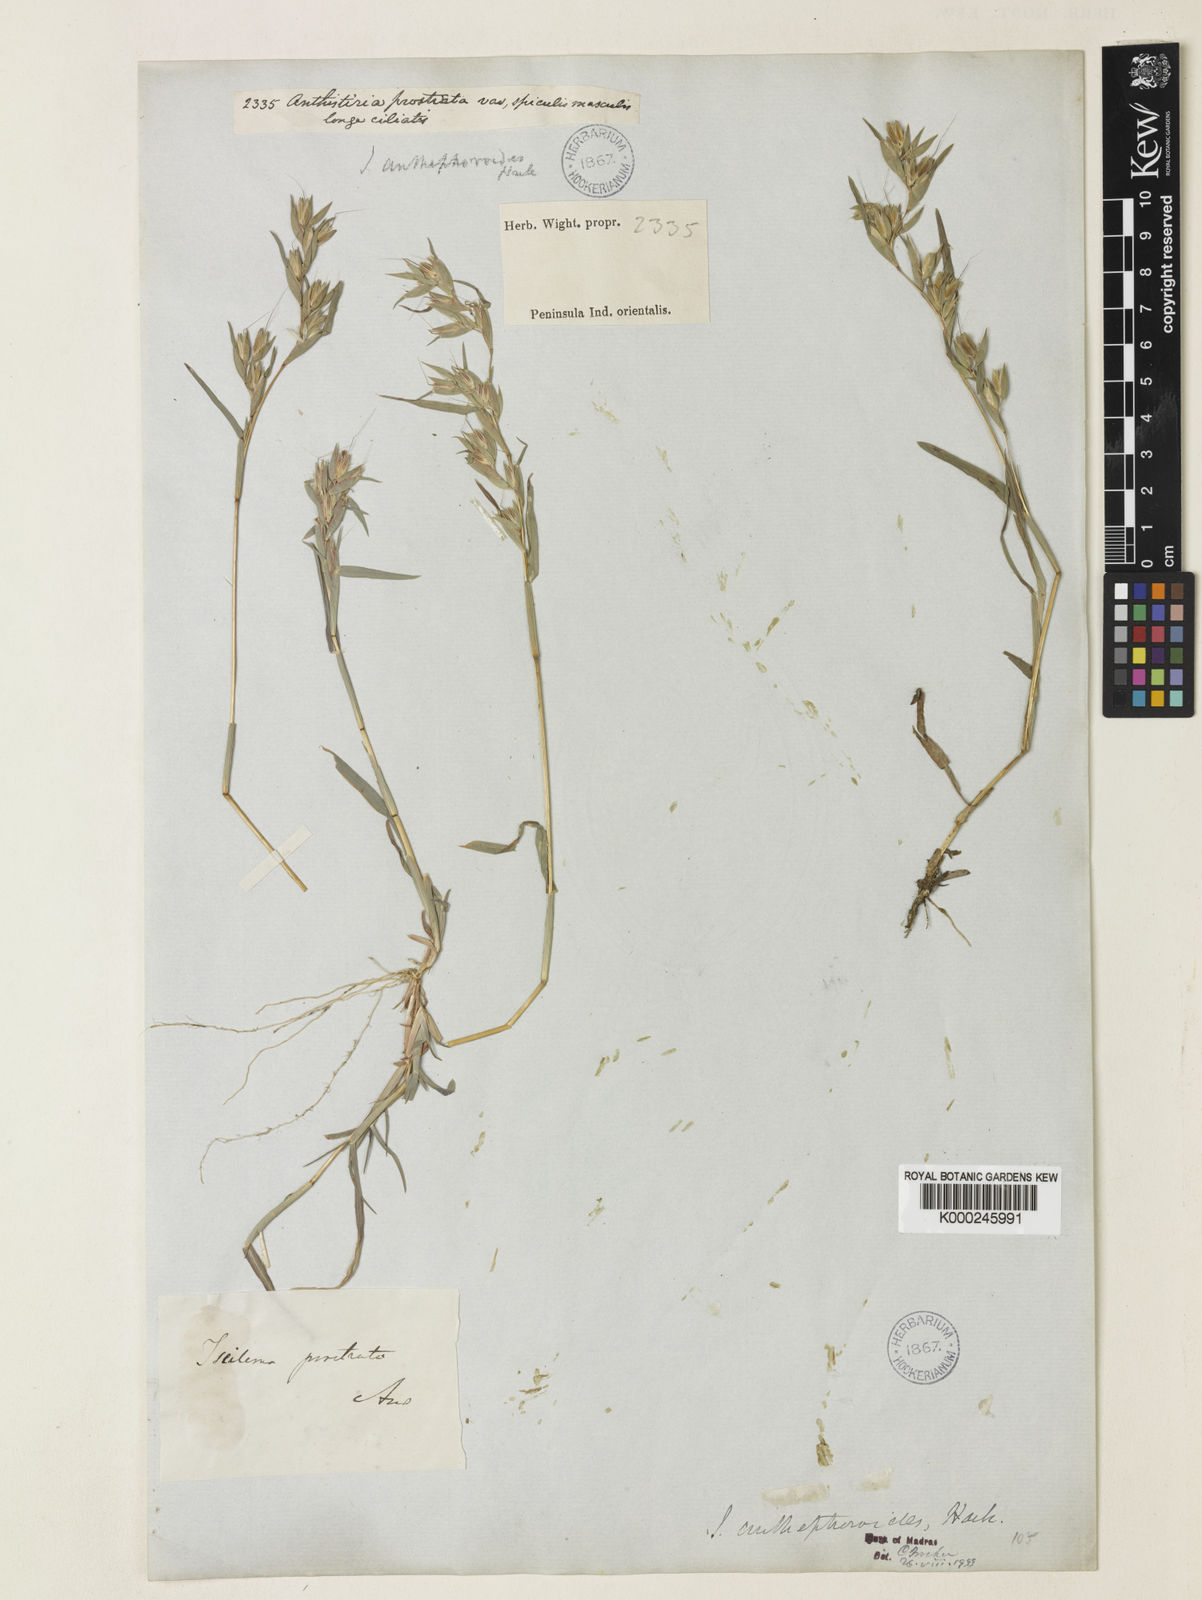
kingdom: Plantae
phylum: Tracheophyta
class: Liliopsida
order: Poales
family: Poaceae
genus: Iseilema
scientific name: Iseilema anthephoroides
